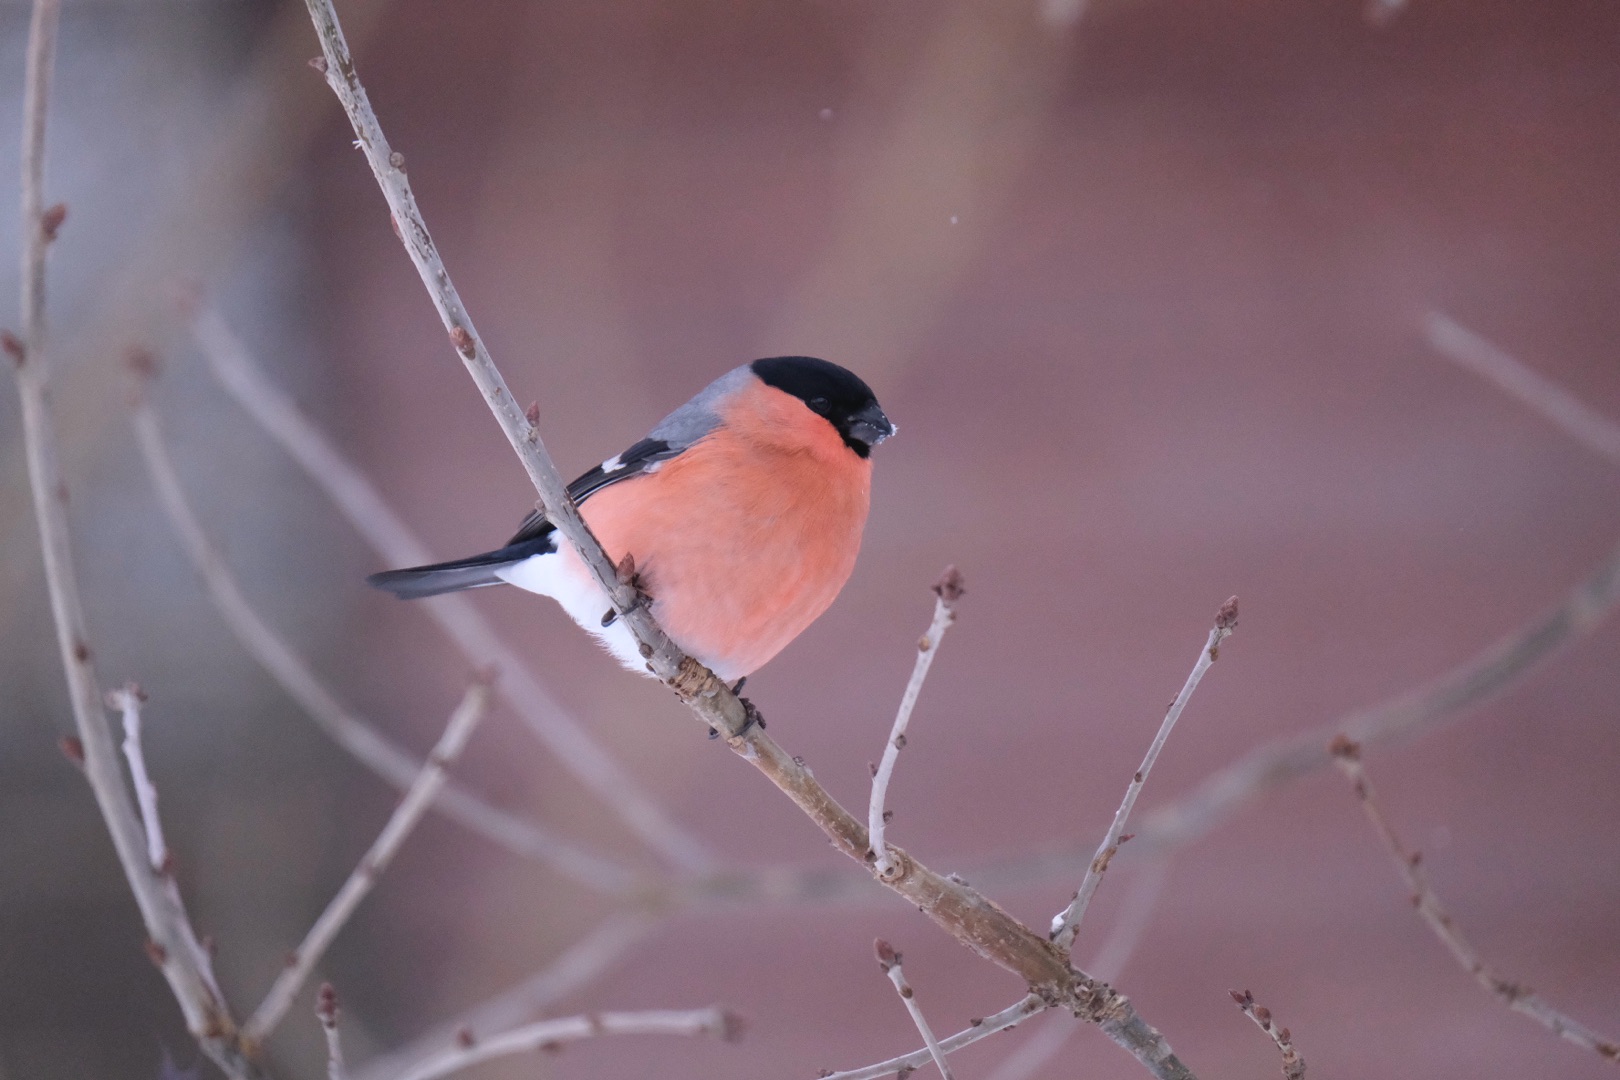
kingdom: Animalia
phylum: Chordata
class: Aves
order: Passeriformes
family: Fringillidae
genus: Pyrrhula
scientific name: Pyrrhula pyrrhula
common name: Dompap
